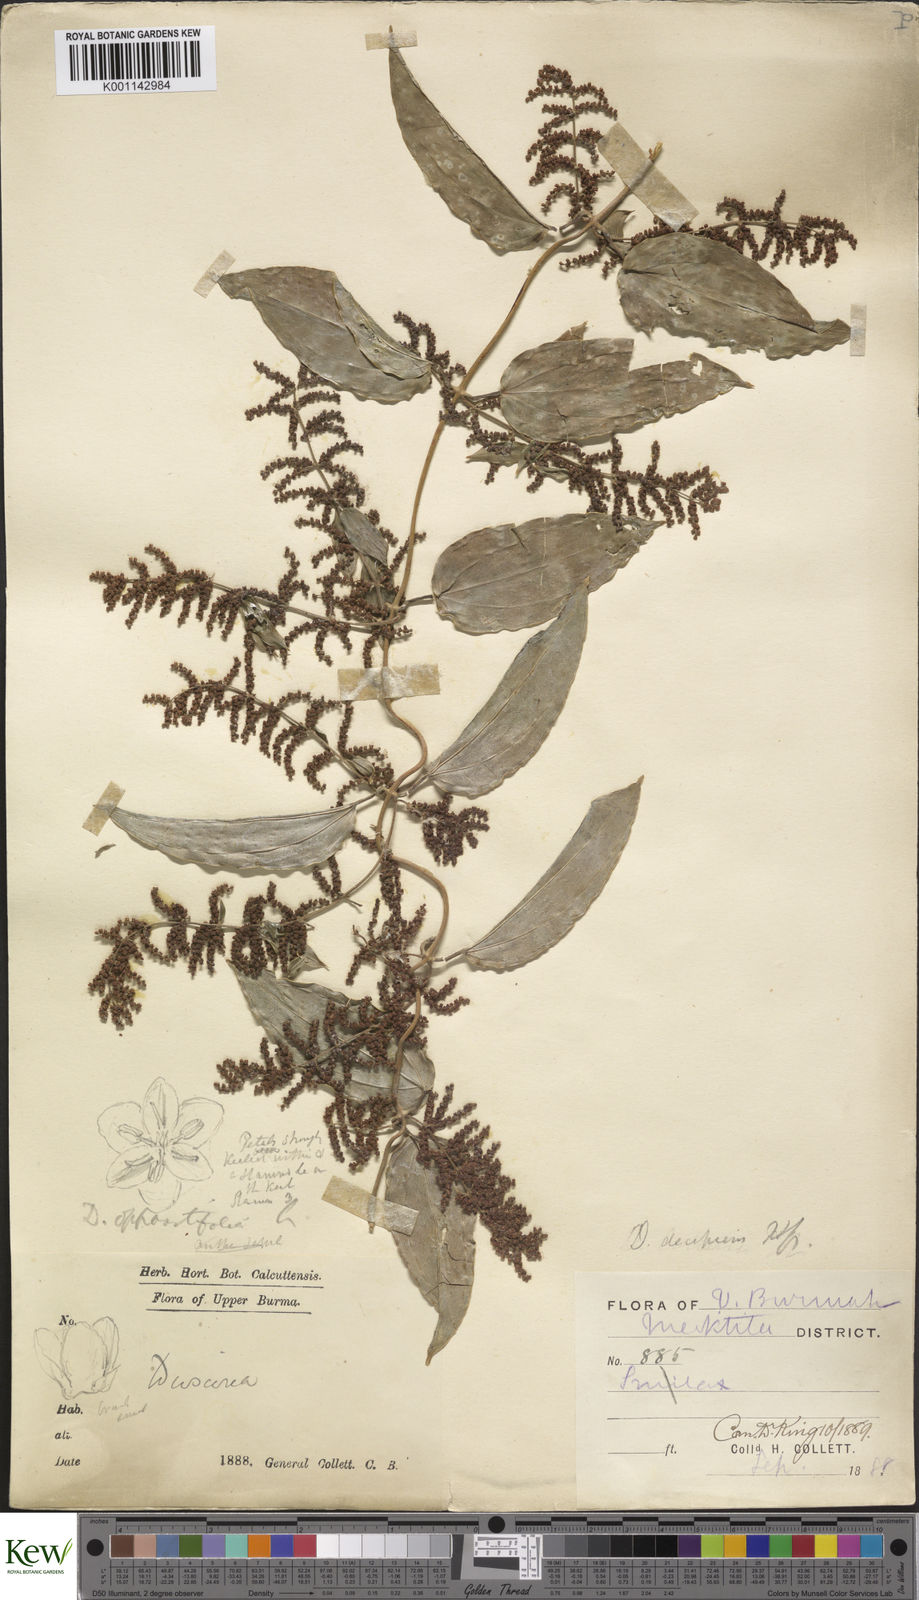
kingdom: Plantae
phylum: Tracheophyta
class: Liliopsida
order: Dioscoreales
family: Dioscoreaceae
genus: Dioscorea
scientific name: Dioscorea decipiens
